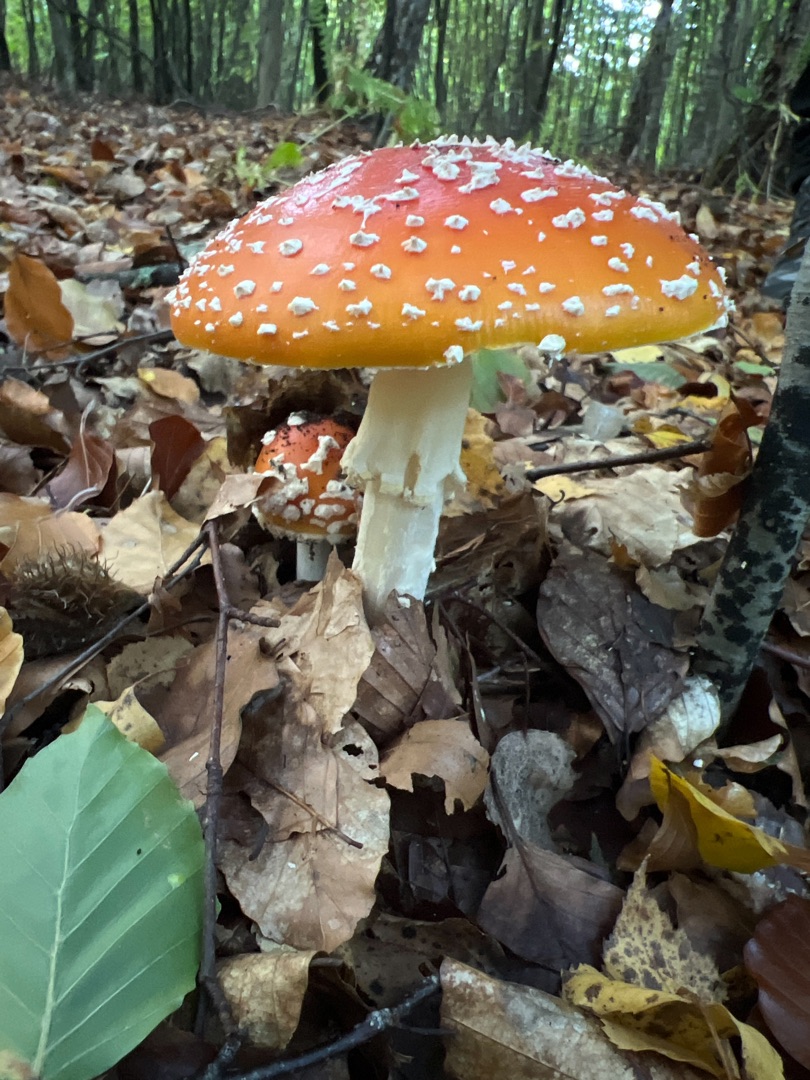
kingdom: Fungi
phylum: Basidiomycota
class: Agaricomycetes
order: Agaricales
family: Amanitaceae
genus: Amanita
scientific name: Amanita muscaria
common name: Rød fluesvamp
